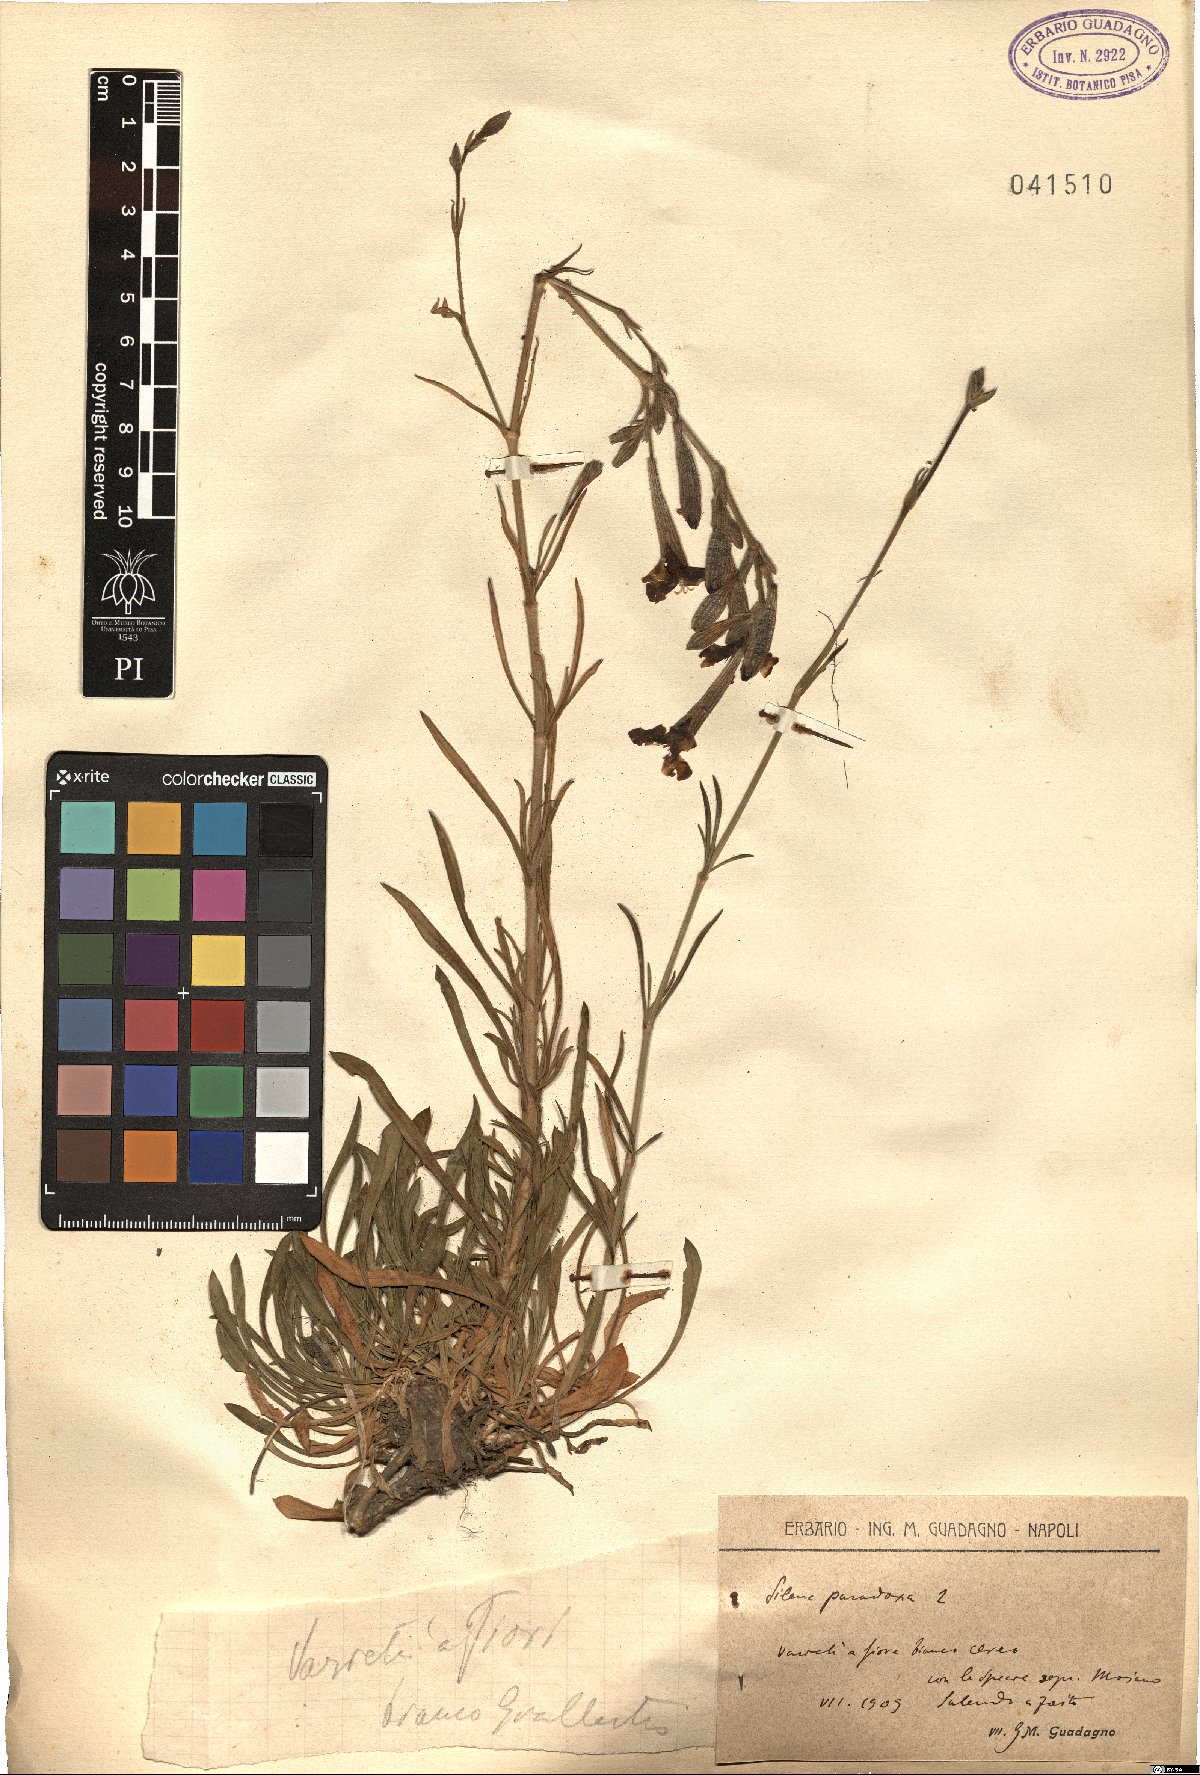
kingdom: Plantae
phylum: Tracheophyta
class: Magnoliopsida
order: Caryophyllales
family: Caryophyllaceae
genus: Silene
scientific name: Silene paradoxa
